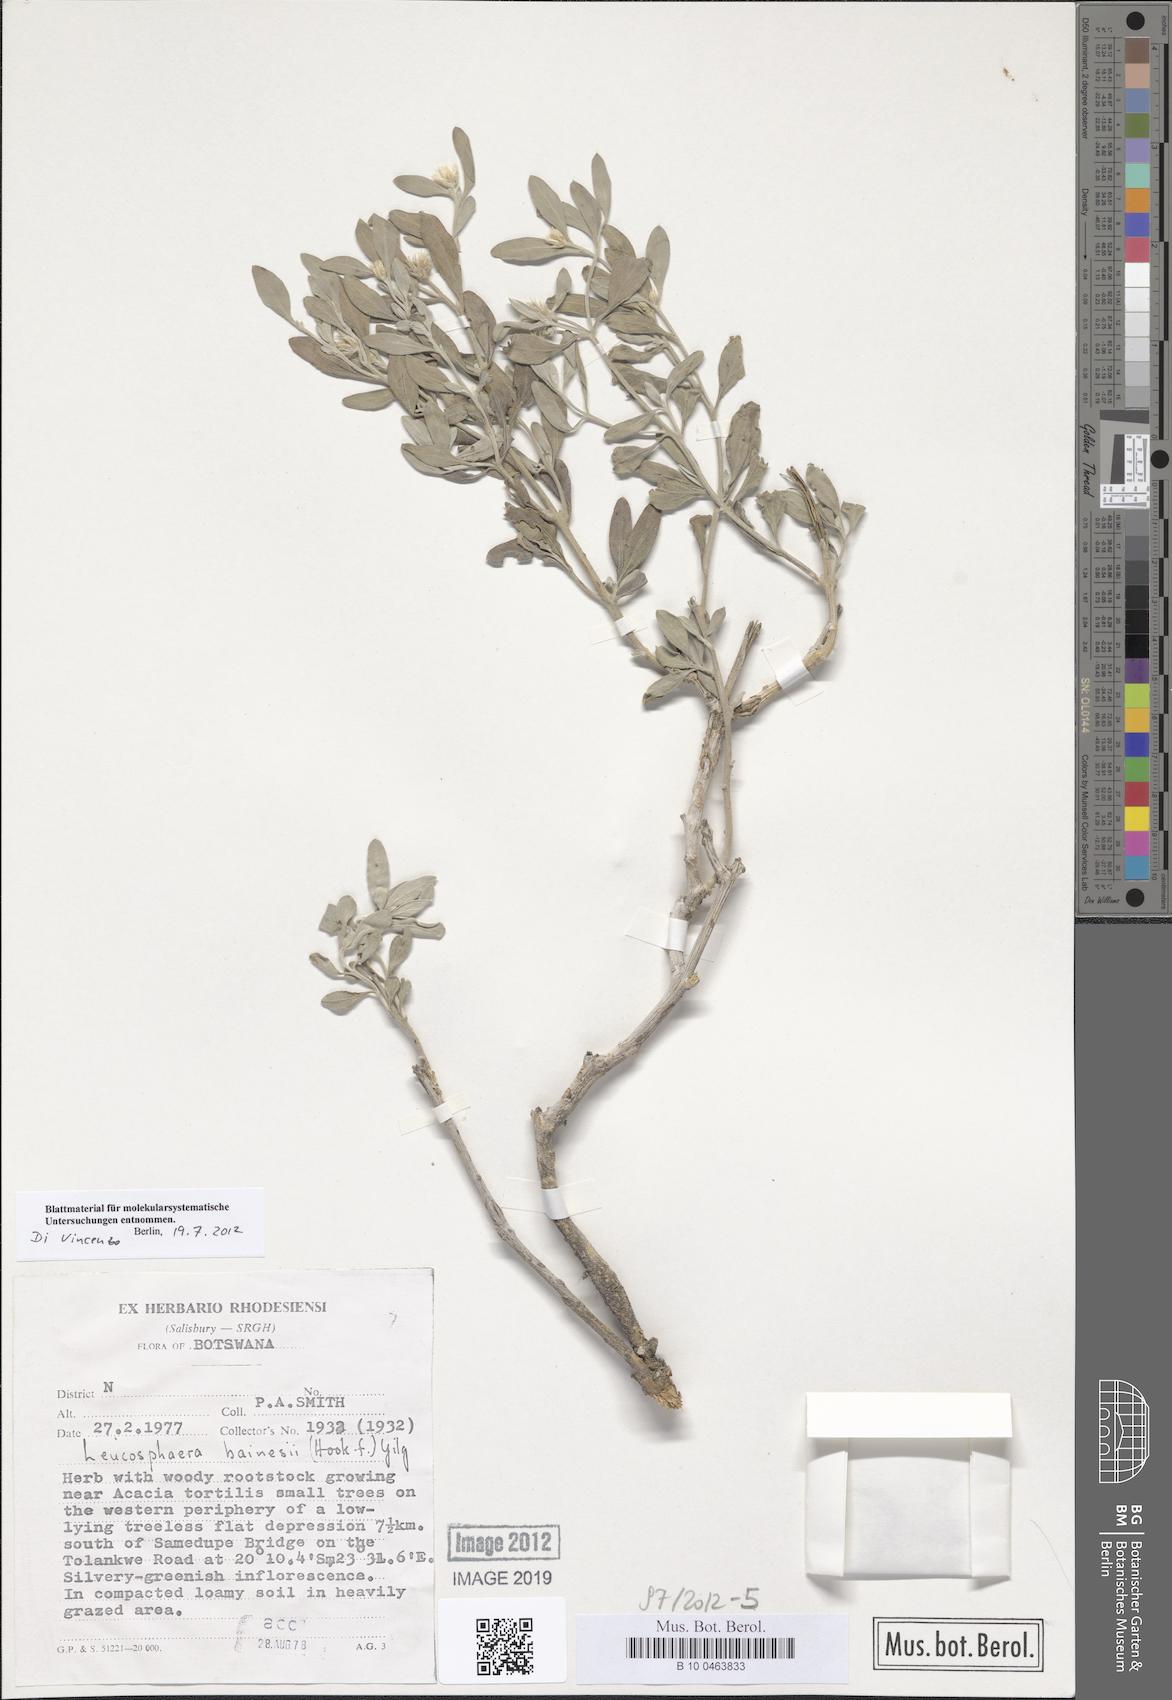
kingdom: Plantae
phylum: Tracheophyta
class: Magnoliopsida
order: Caryophyllales
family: Amaranthaceae
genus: Leucosphaera
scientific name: Leucosphaera bainesii
